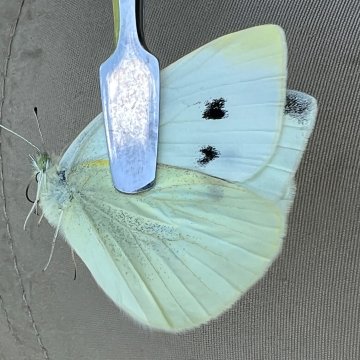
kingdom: Animalia
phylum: Arthropoda
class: Insecta
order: Lepidoptera
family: Pieridae
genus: Pieris
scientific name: Pieris rapae
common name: Cabbage White
